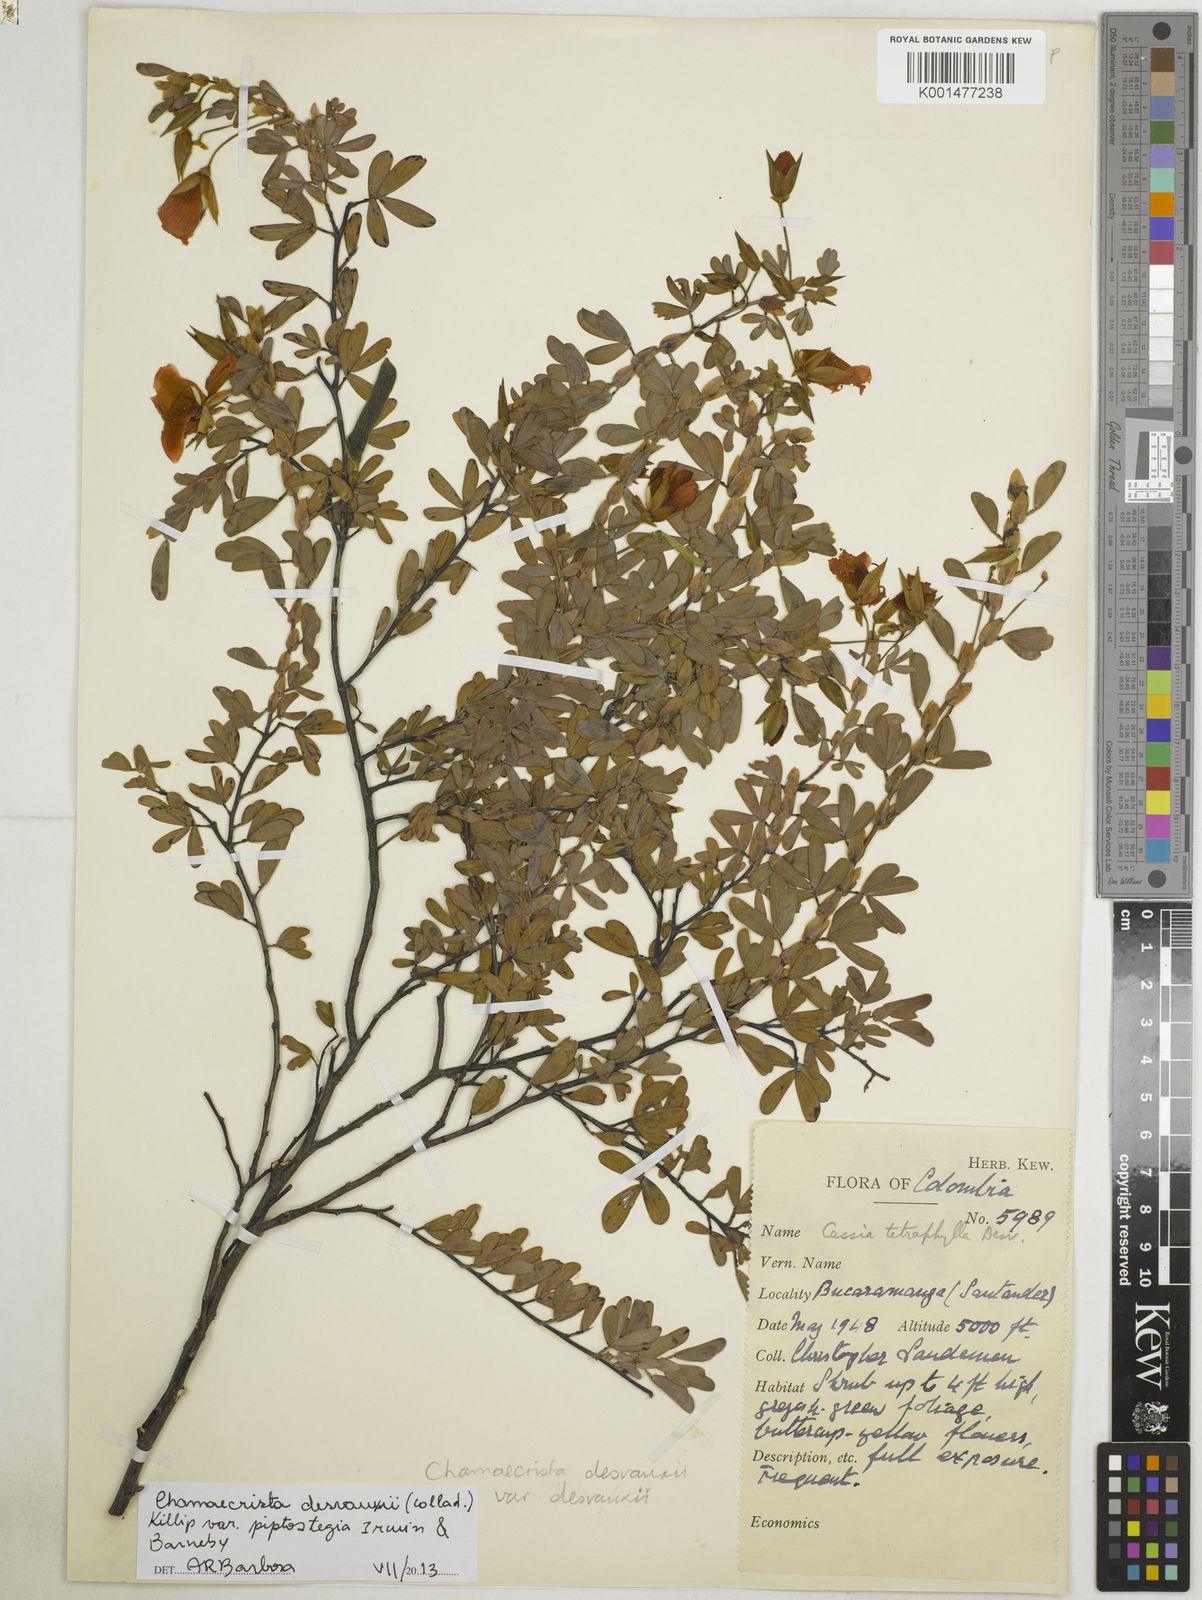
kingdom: Plantae
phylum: Tracheophyta
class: Magnoliopsida
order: Fabales
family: Fabaceae
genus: Chamaecrista
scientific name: Chamaecrista desvauxii
